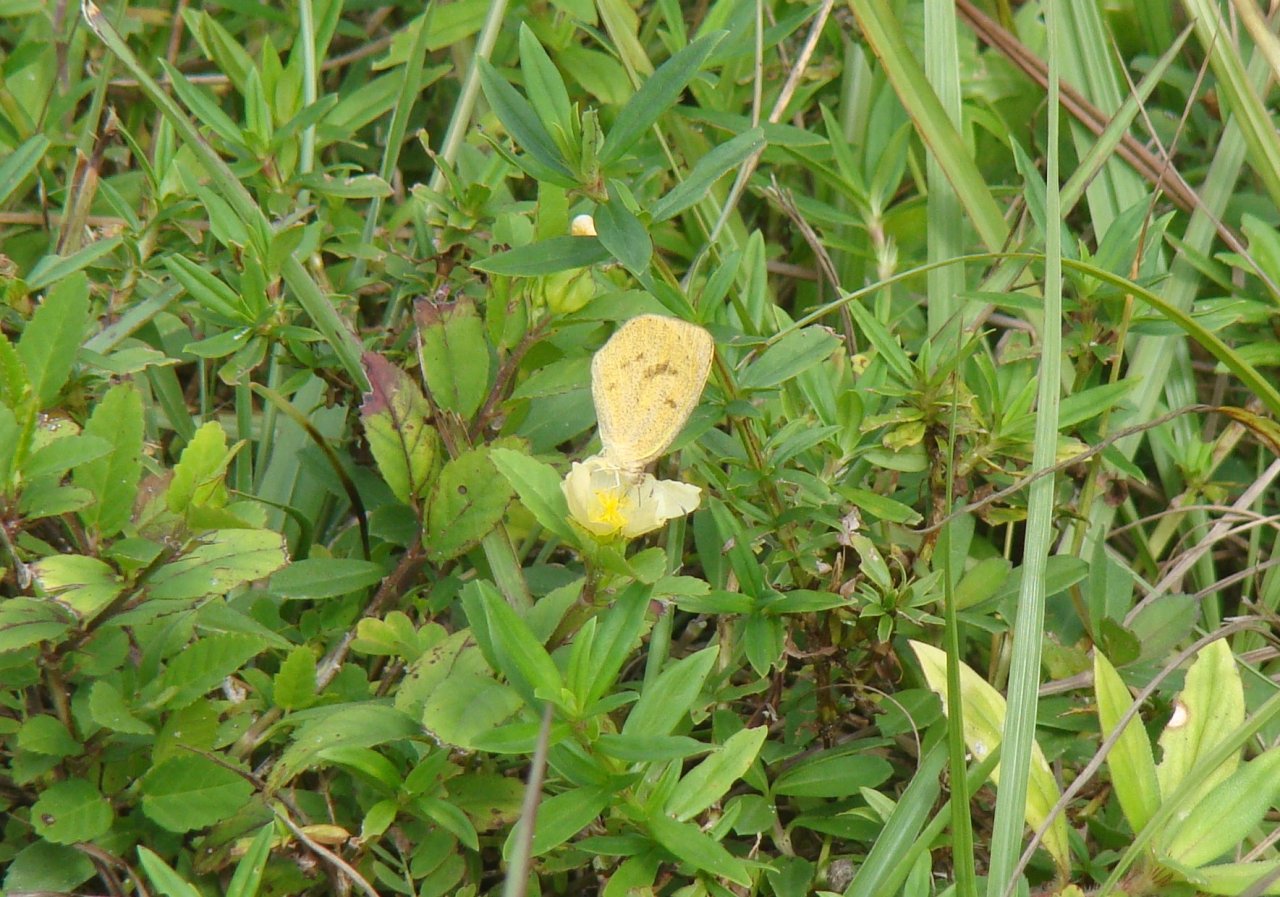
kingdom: Animalia
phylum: Arthropoda
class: Insecta
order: Lepidoptera
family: Pieridae
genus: Eurema
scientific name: Eurema daira
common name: Barred Yellow
